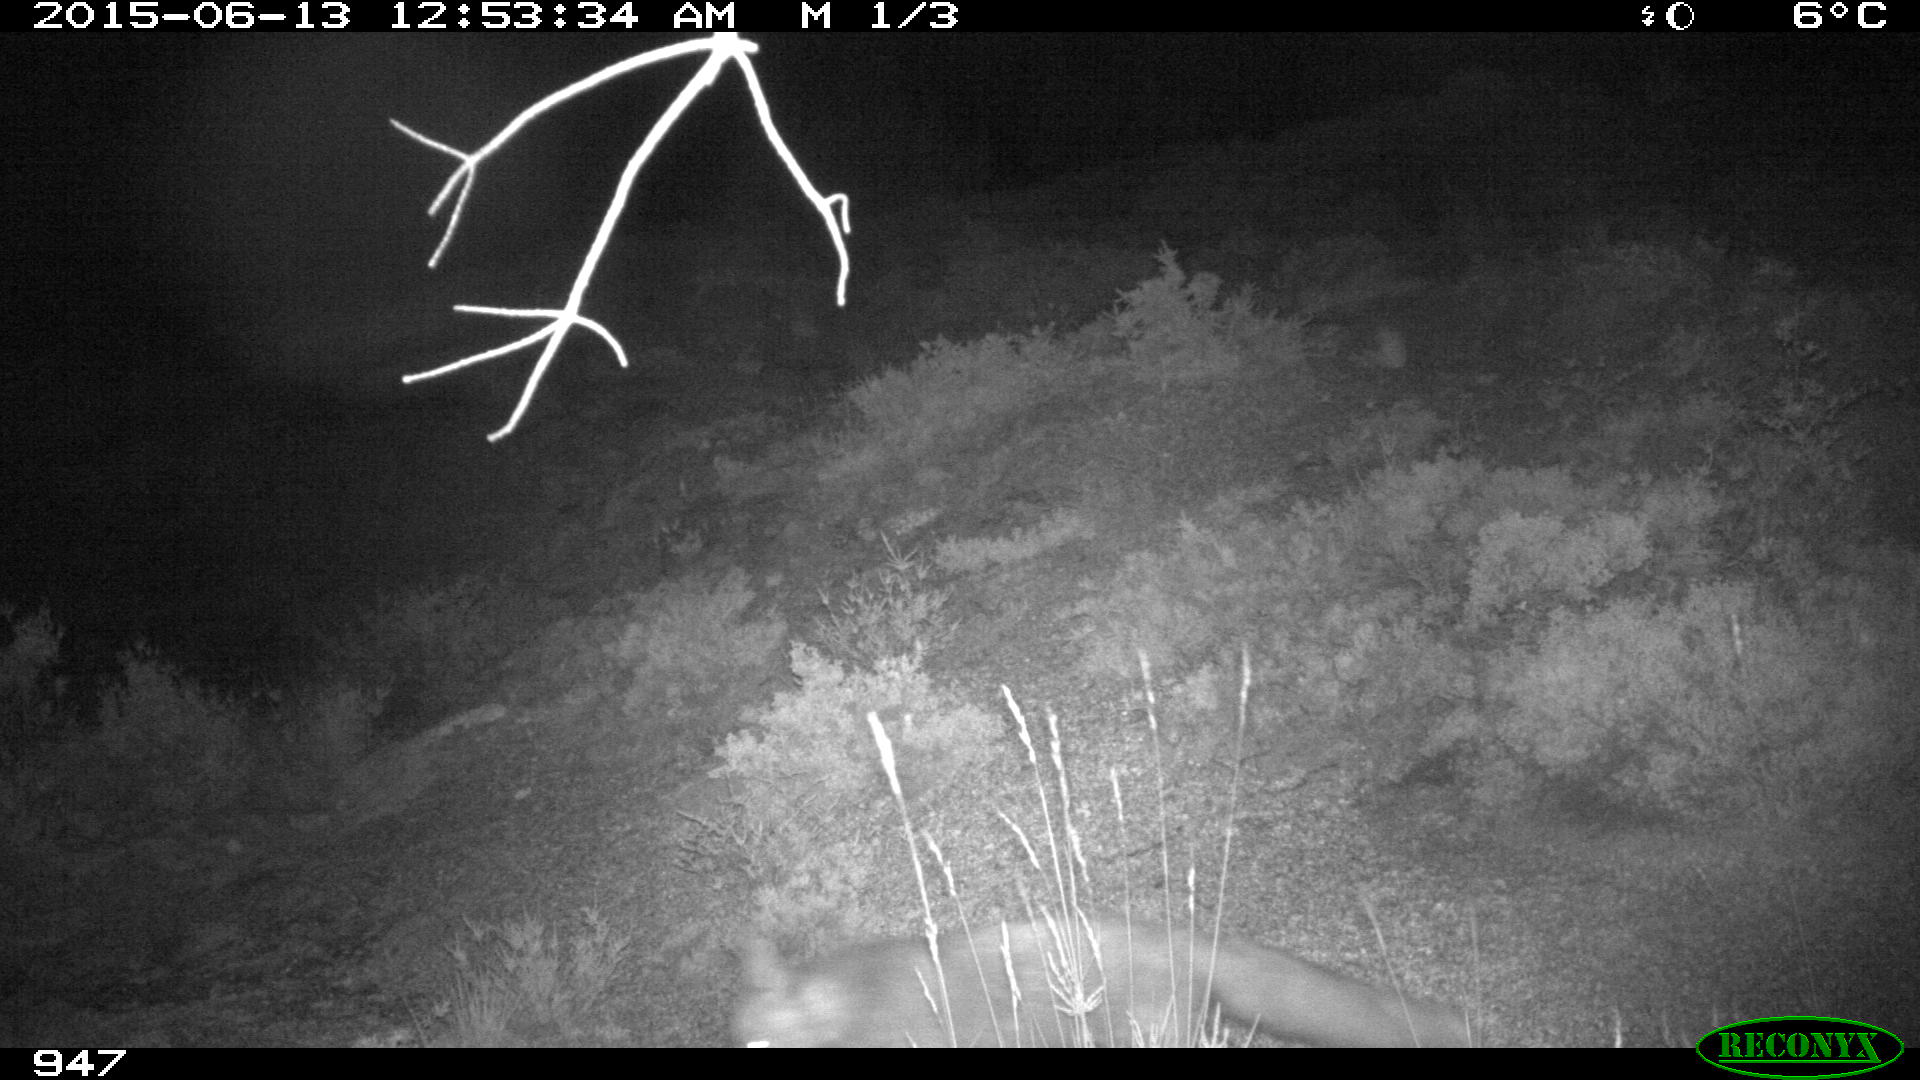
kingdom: Animalia
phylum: Chordata
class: Mammalia
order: Carnivora
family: Canidae
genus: Vulpes
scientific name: Vulpes vulpes
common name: Red fox
